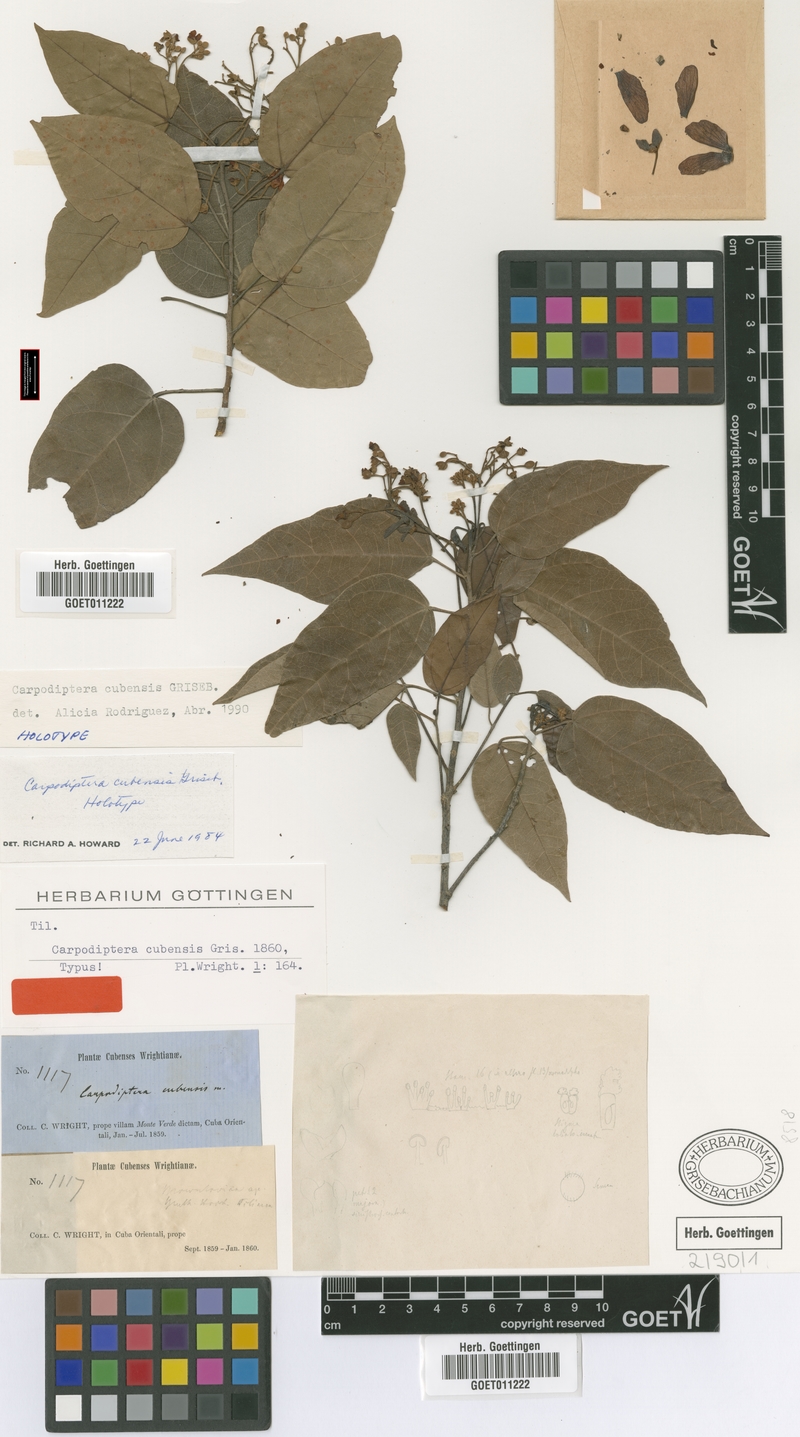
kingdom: Plantae
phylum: Tracheophyta
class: Magnoliopsida
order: Malvales
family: Malvaceae
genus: Berrya
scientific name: Berrya cubensis
